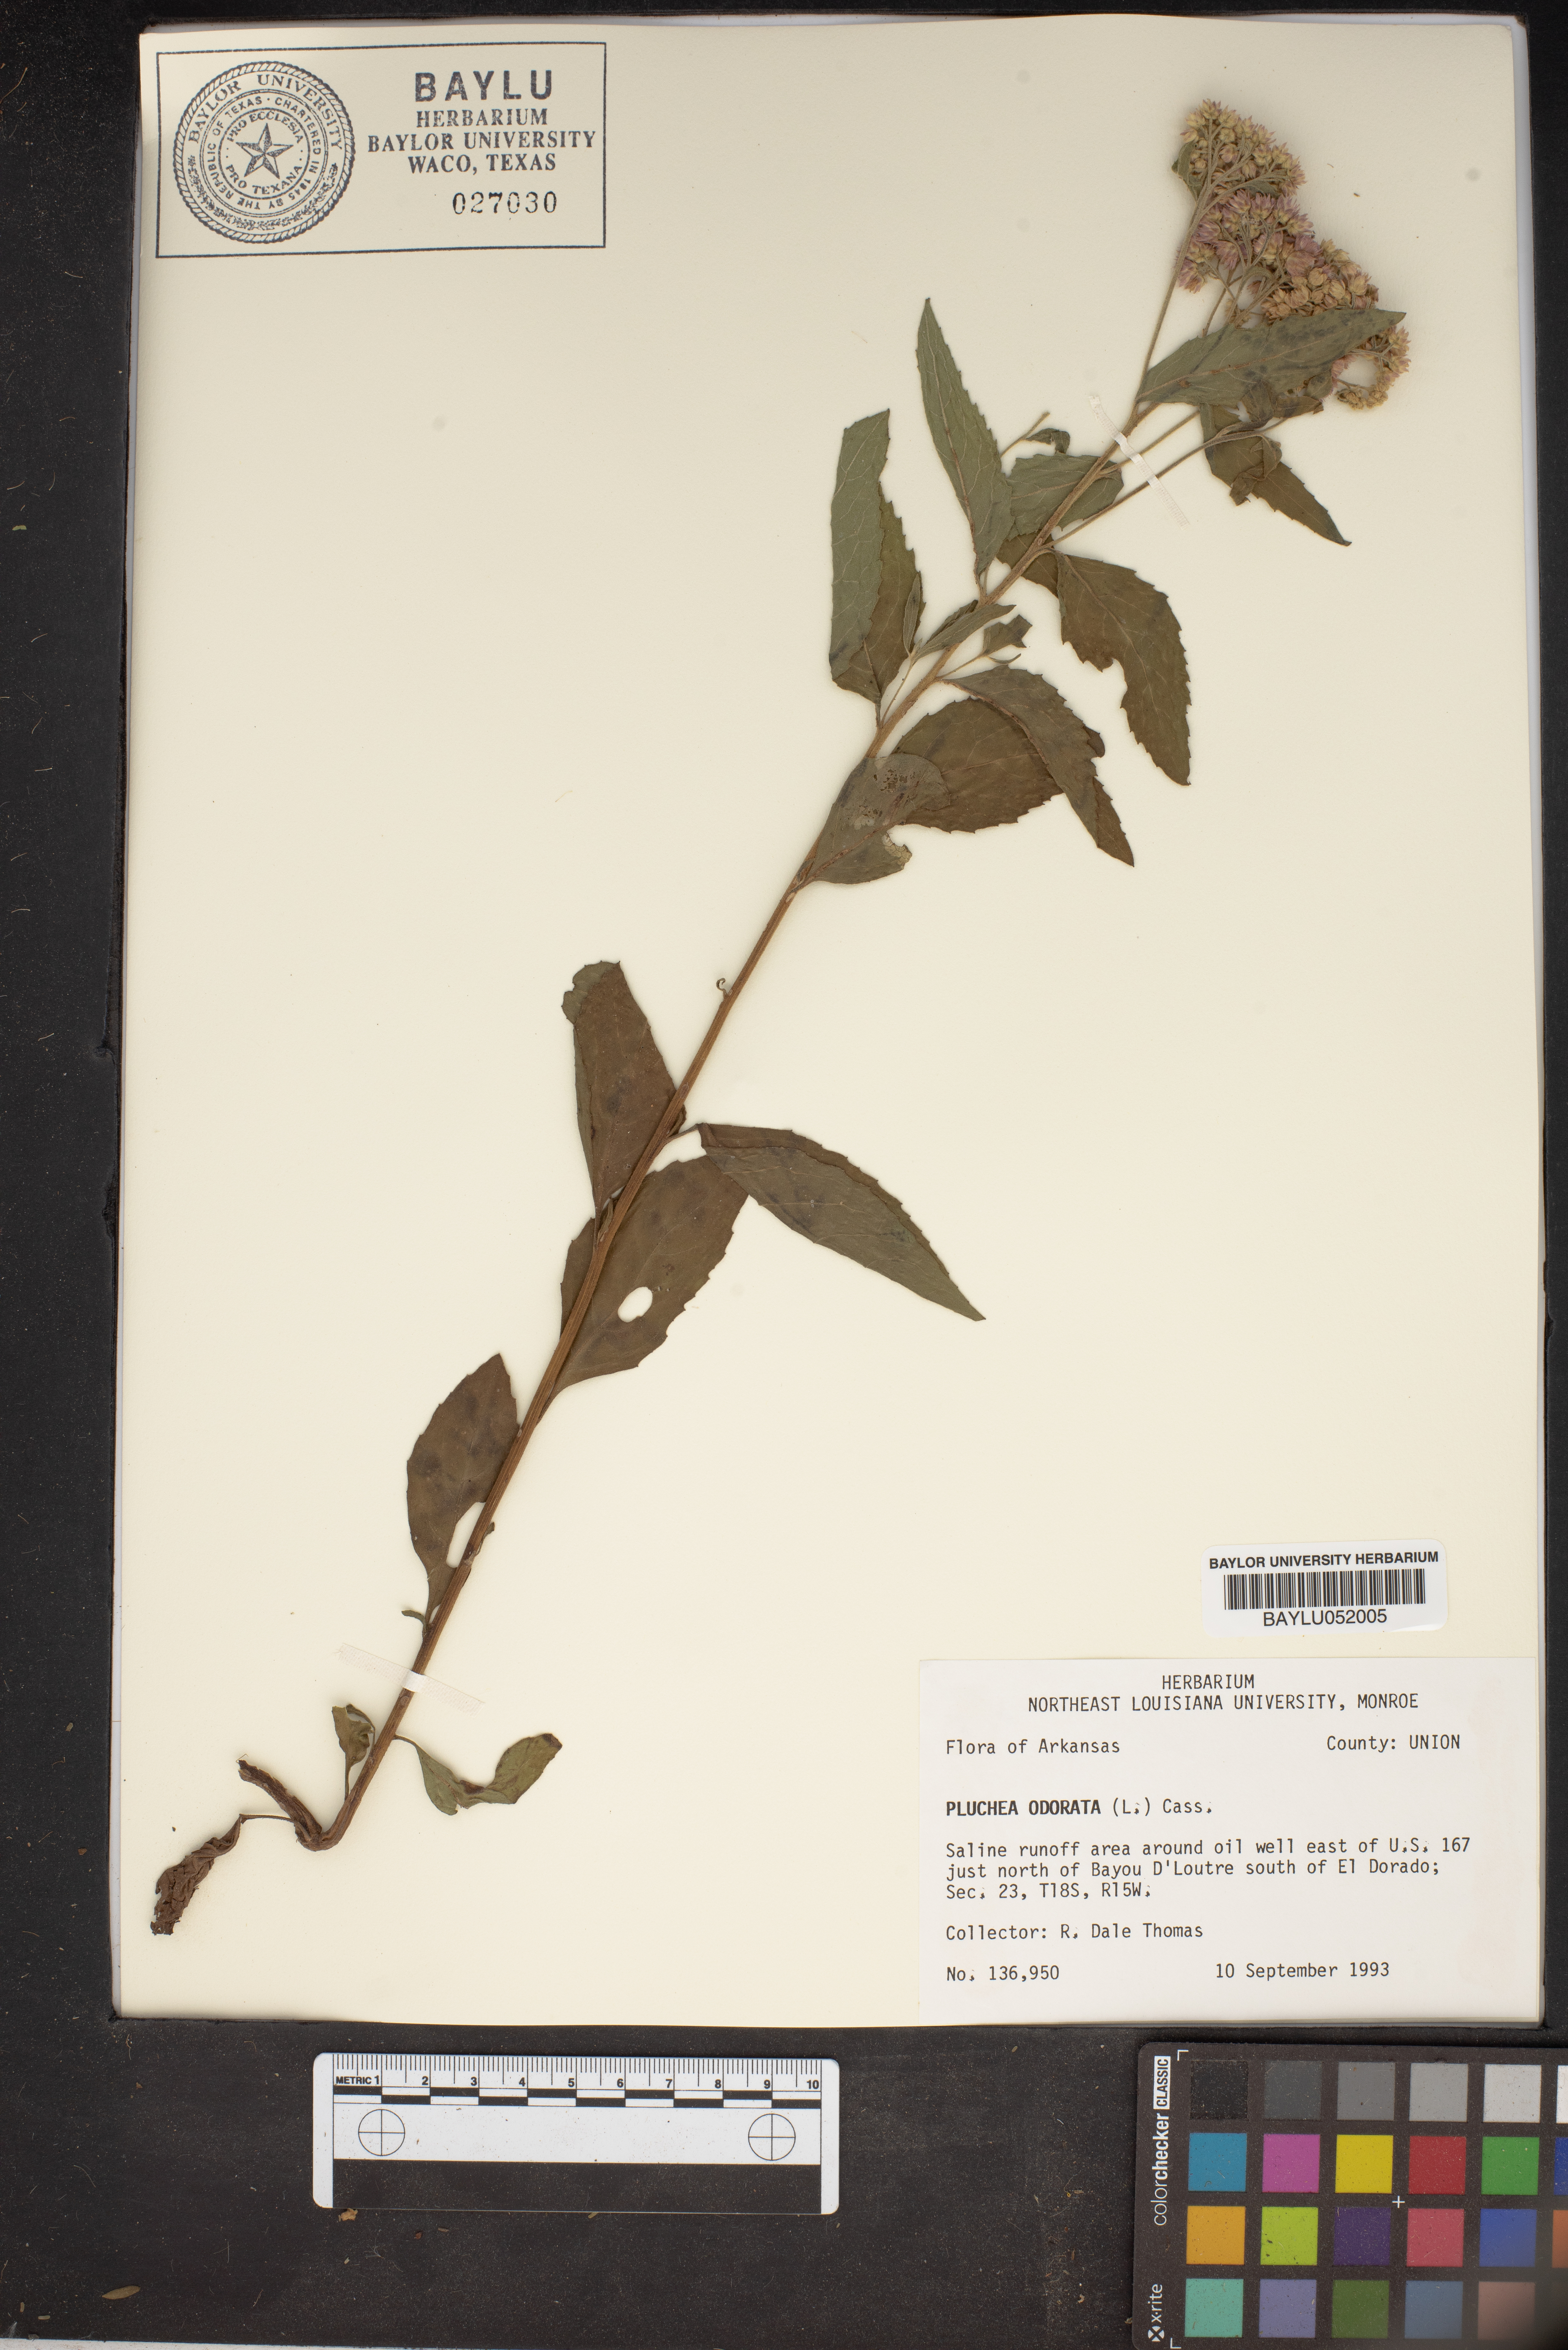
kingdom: Plantae
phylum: Tracheophyta
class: Magnoliopsida
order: Asterales
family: Asteraceae
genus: Pluchea
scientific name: Pluchea odorata
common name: Saltmarsh fleabane
